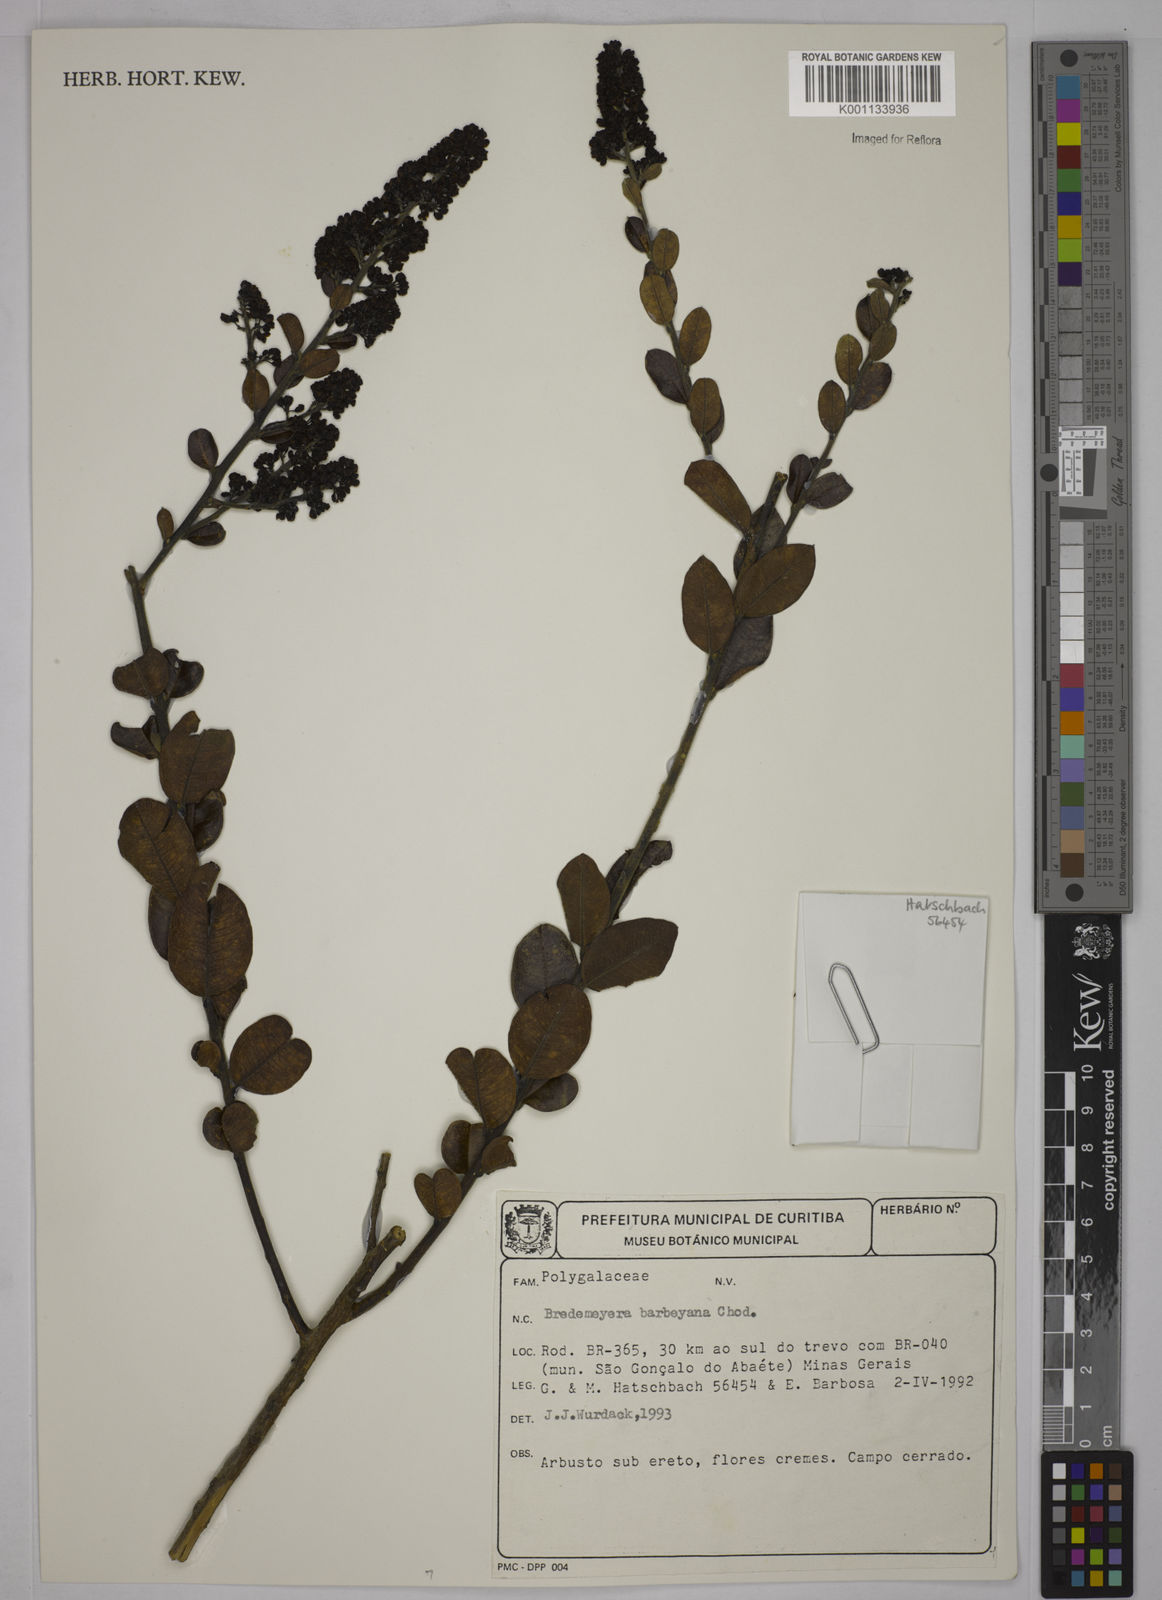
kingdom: Plantae
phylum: Tracheophyta
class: Magnoliopsida
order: Fabales
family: Polygalaceae
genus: Bredemeyera
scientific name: Bredemeyera barbeyana
